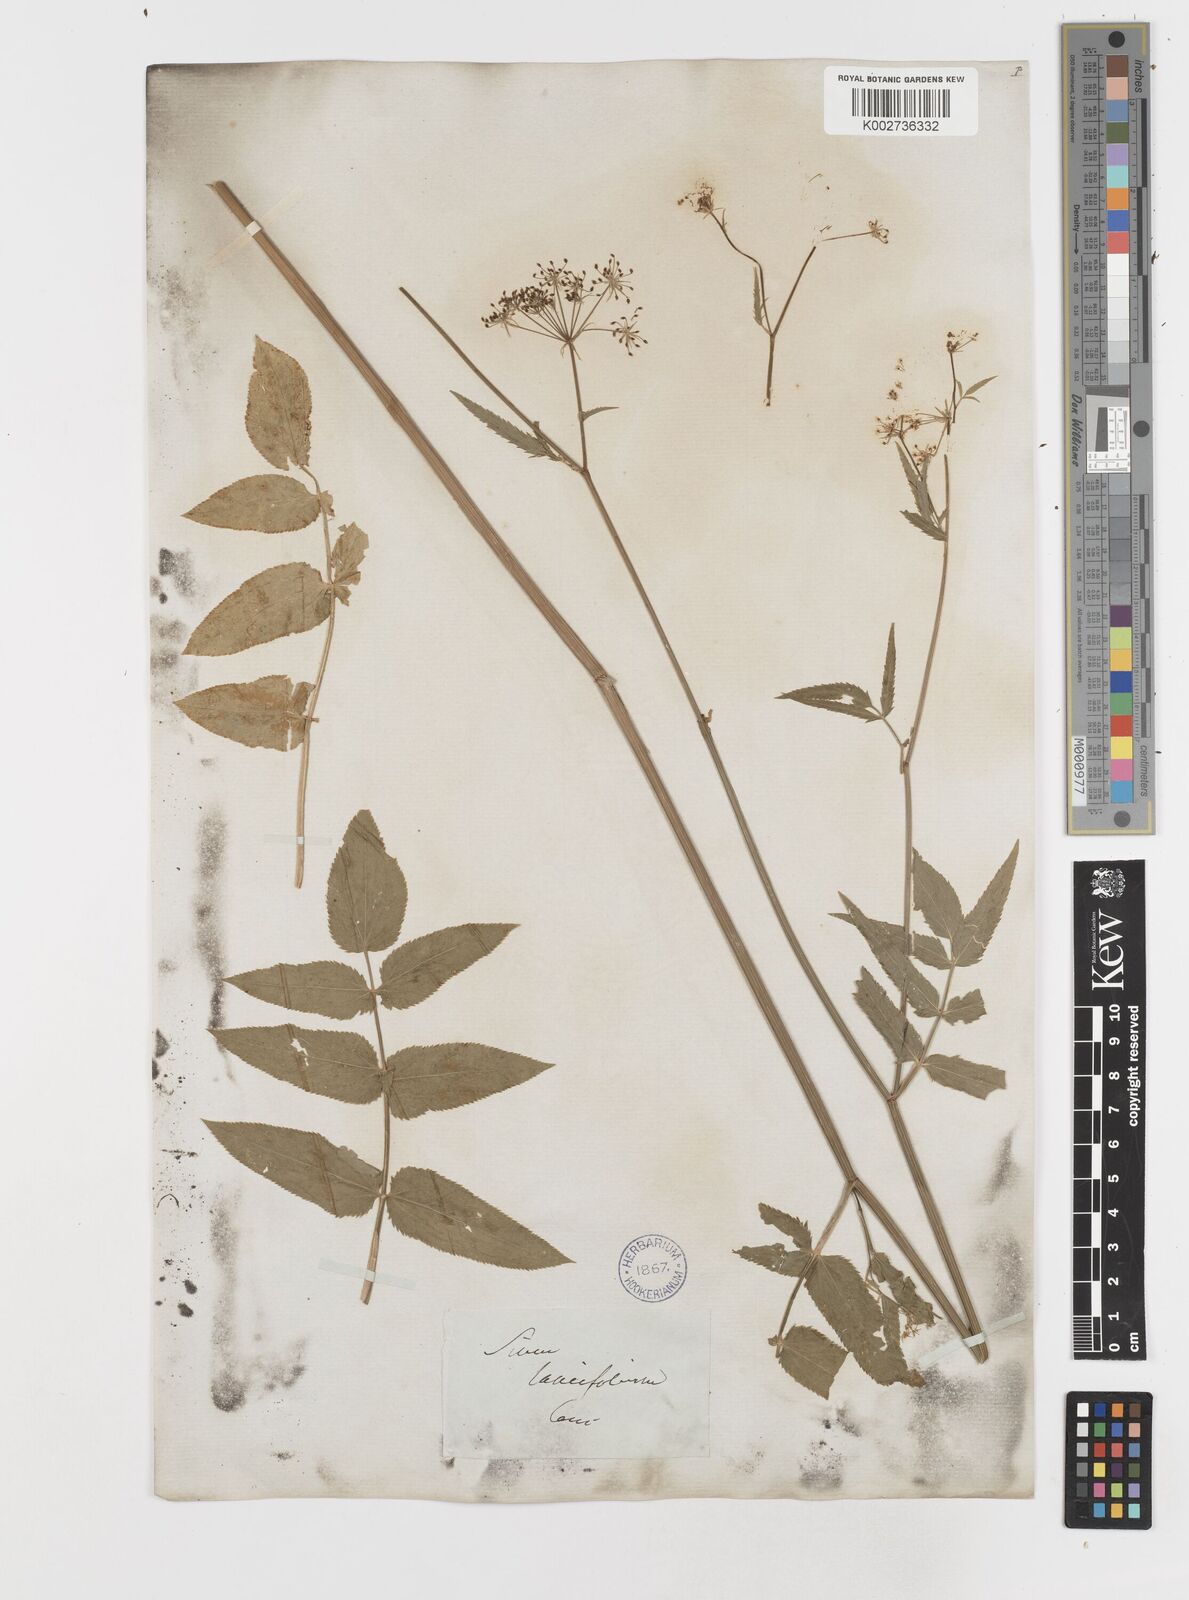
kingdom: Plantae
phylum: Tracheophyta
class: Magnoliopsida
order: Apiales
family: Apiaceae
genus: Sium
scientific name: Sium sisarum
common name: Skirret
